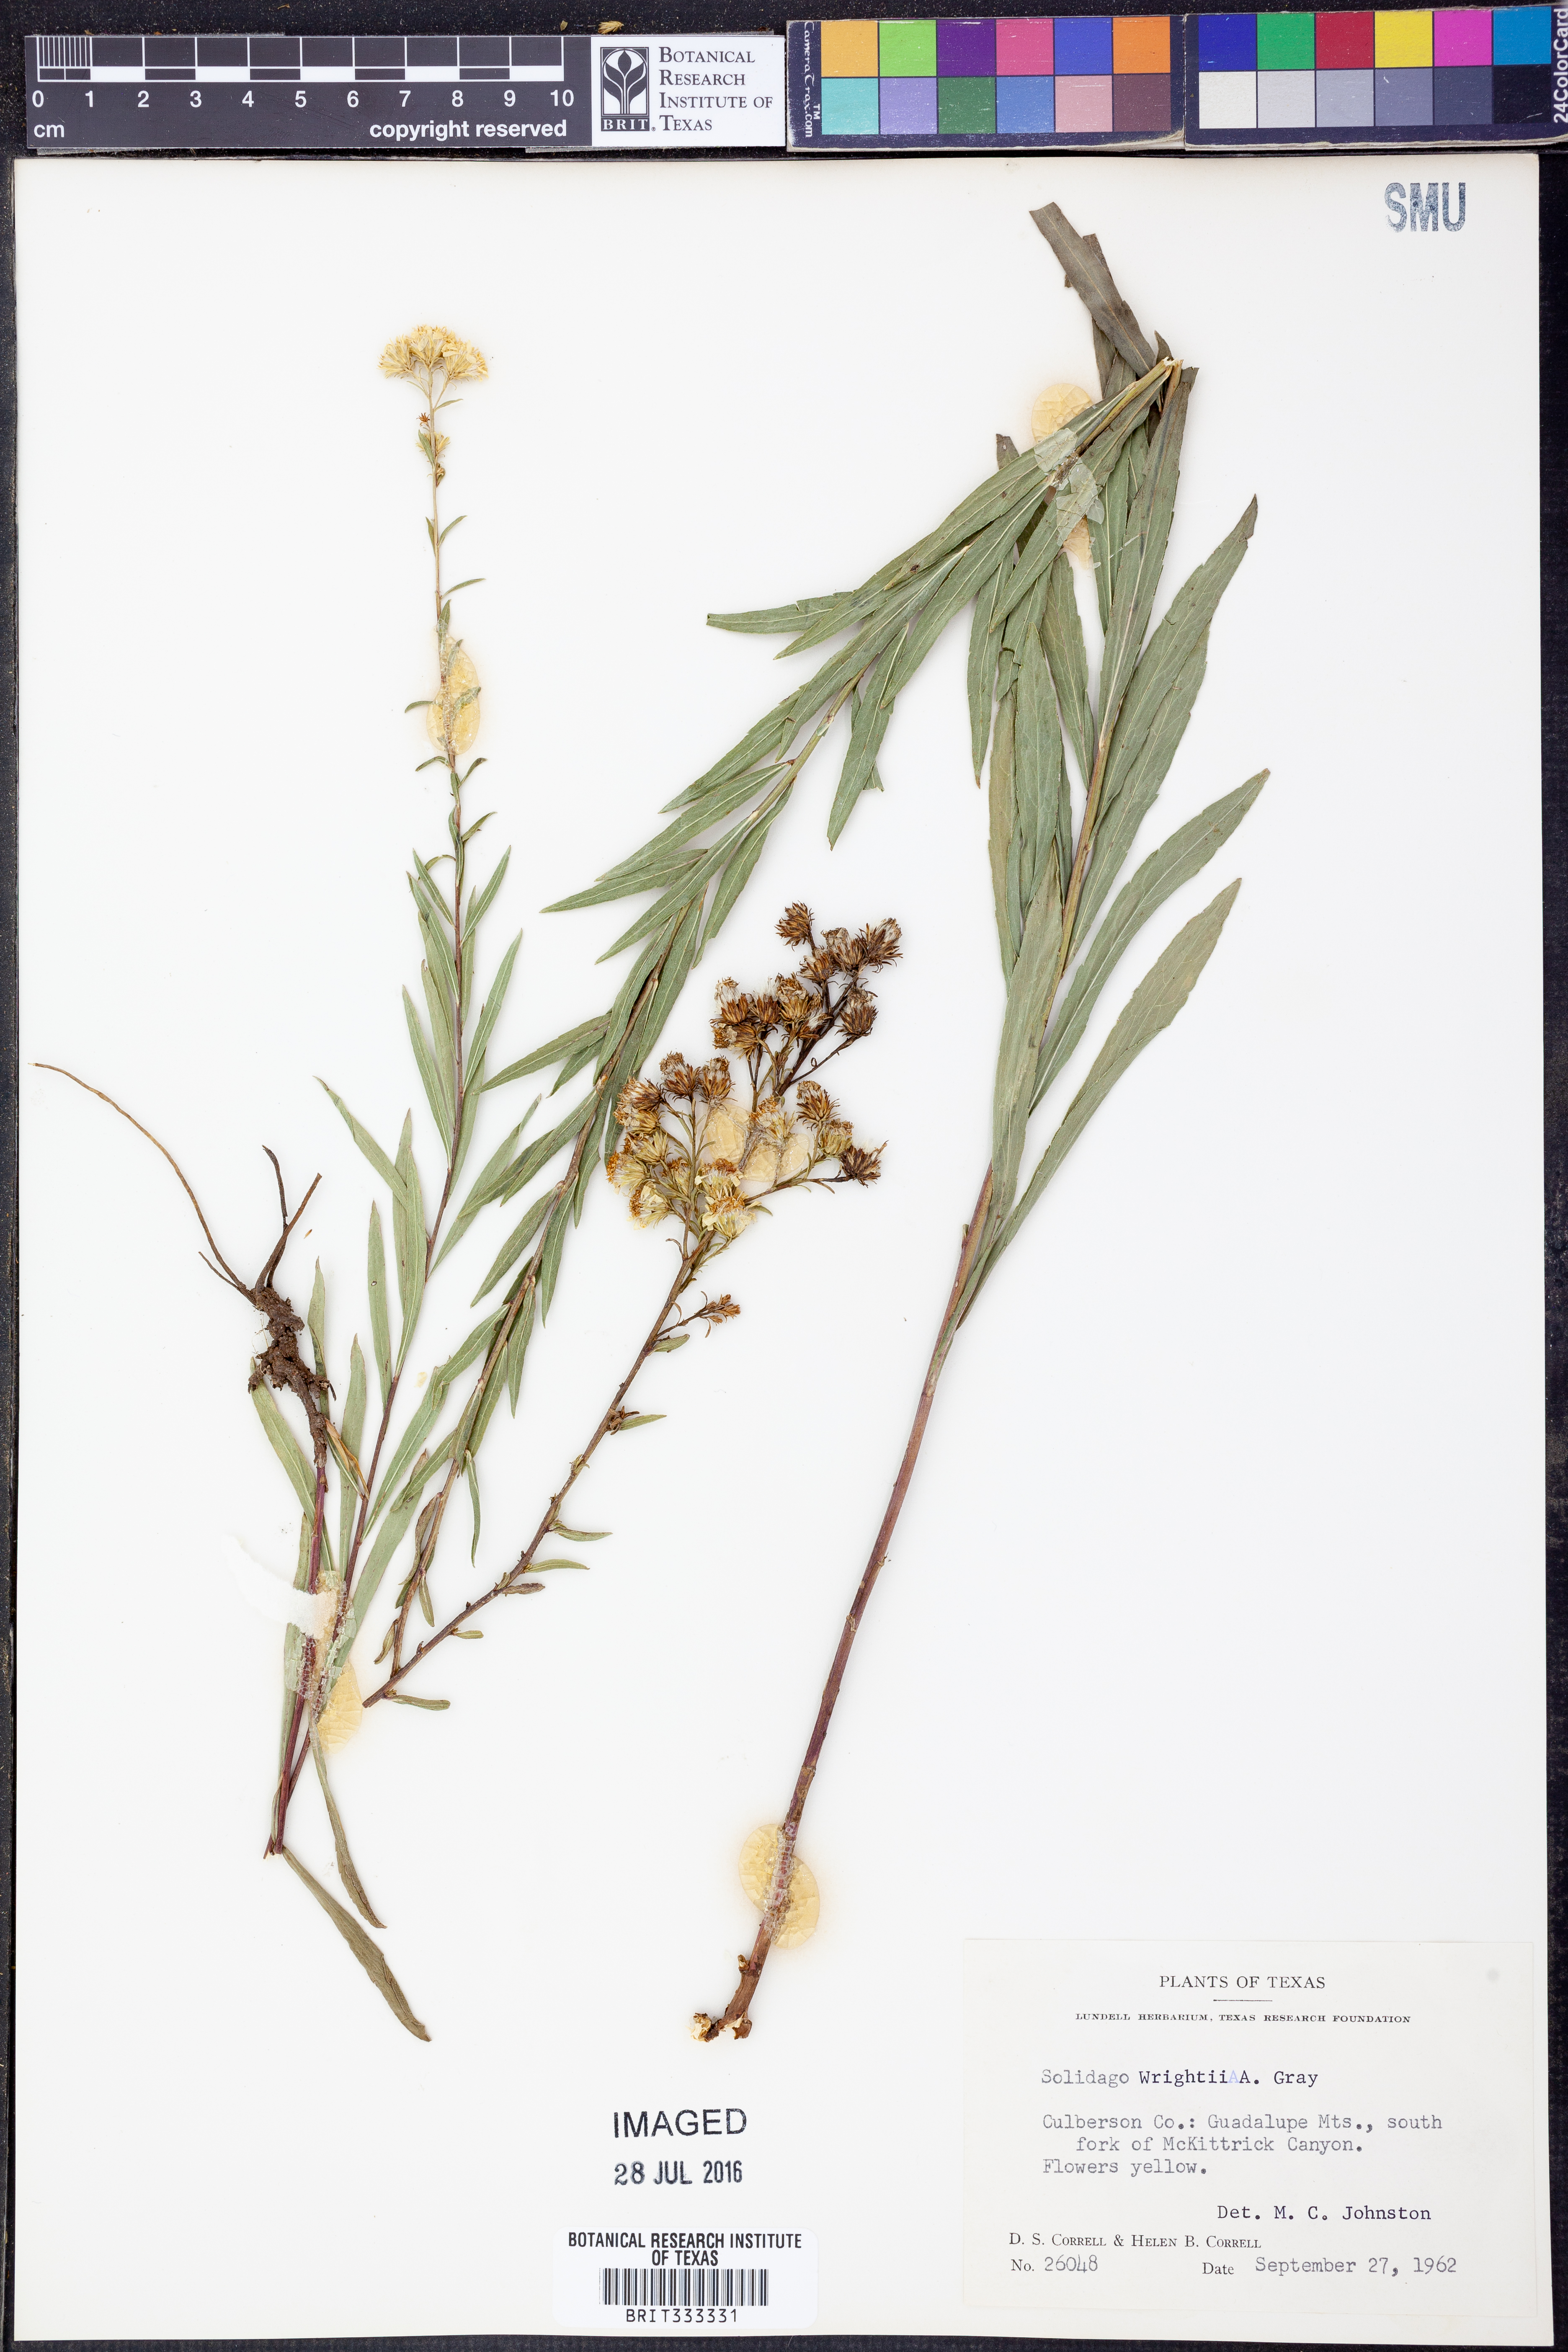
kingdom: Plantae
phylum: Tracheophyta
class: Magnoliopsida
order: Asterales
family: Asteraceae
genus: Solidago
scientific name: Solidago wrightii
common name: Wright's goldenrod
